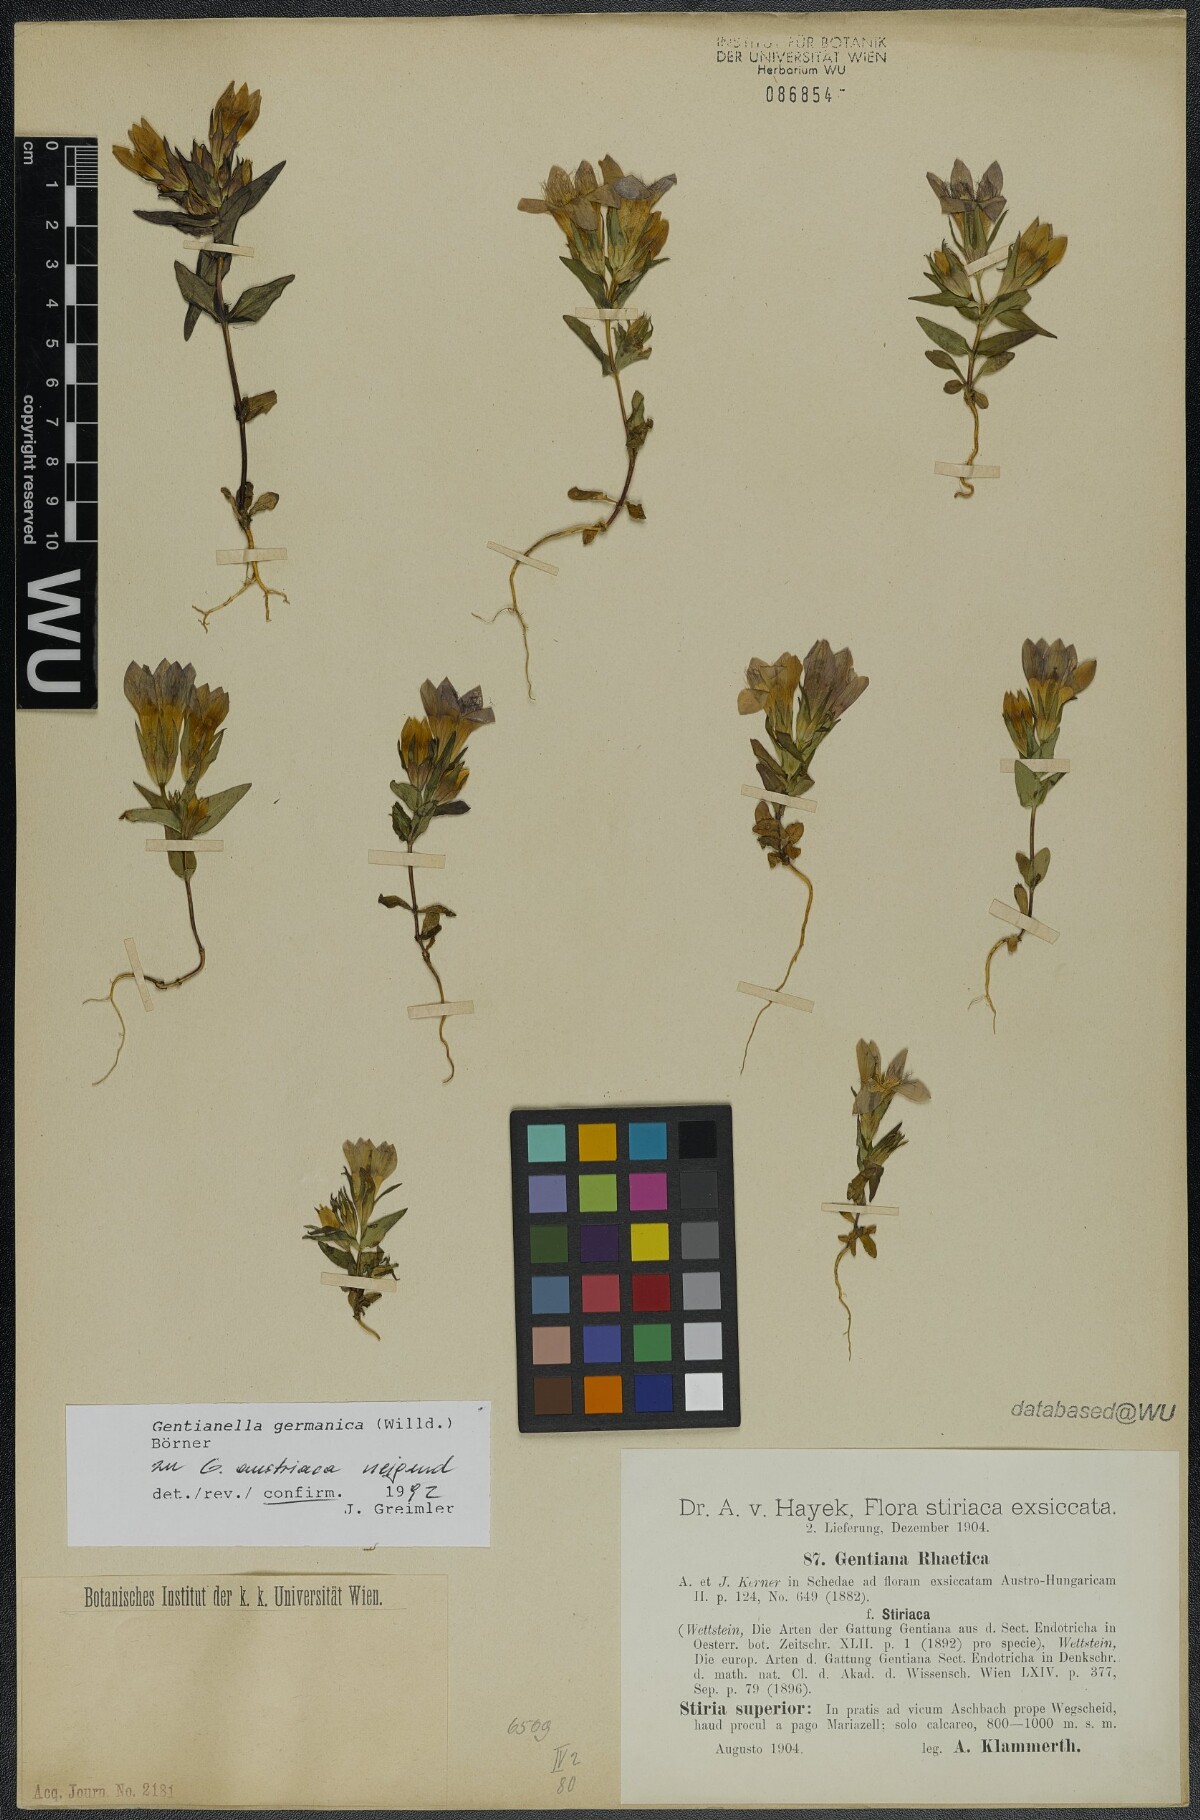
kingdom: Plantae
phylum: Tracheophyta
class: Magnoliopsida
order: Gentianales
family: Gentianaceae
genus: Gentianella
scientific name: Gentianella germanica
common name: Chiltern-gentian
